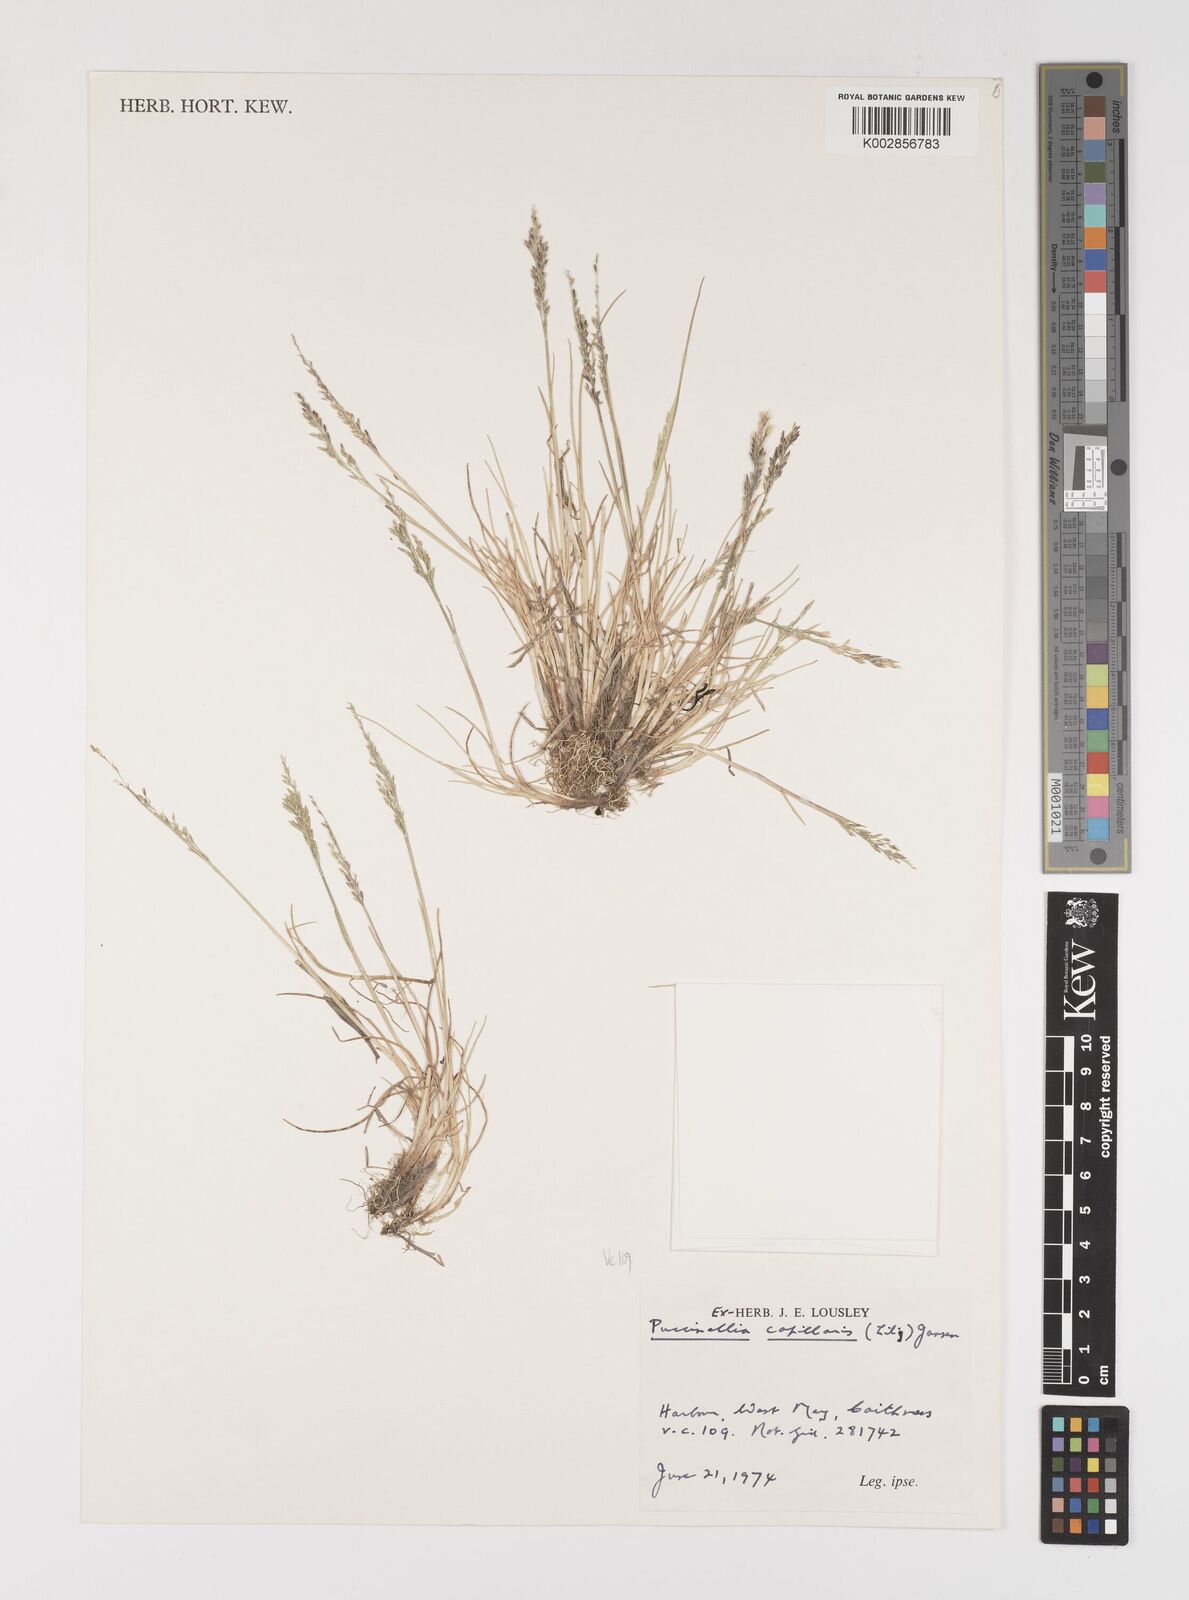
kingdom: Plantae
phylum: Tracheophyta
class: Liliopsida
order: Poales
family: Poaceae
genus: Puccinellia
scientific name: Puccinellia distans
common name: Weeping alkaligrass
